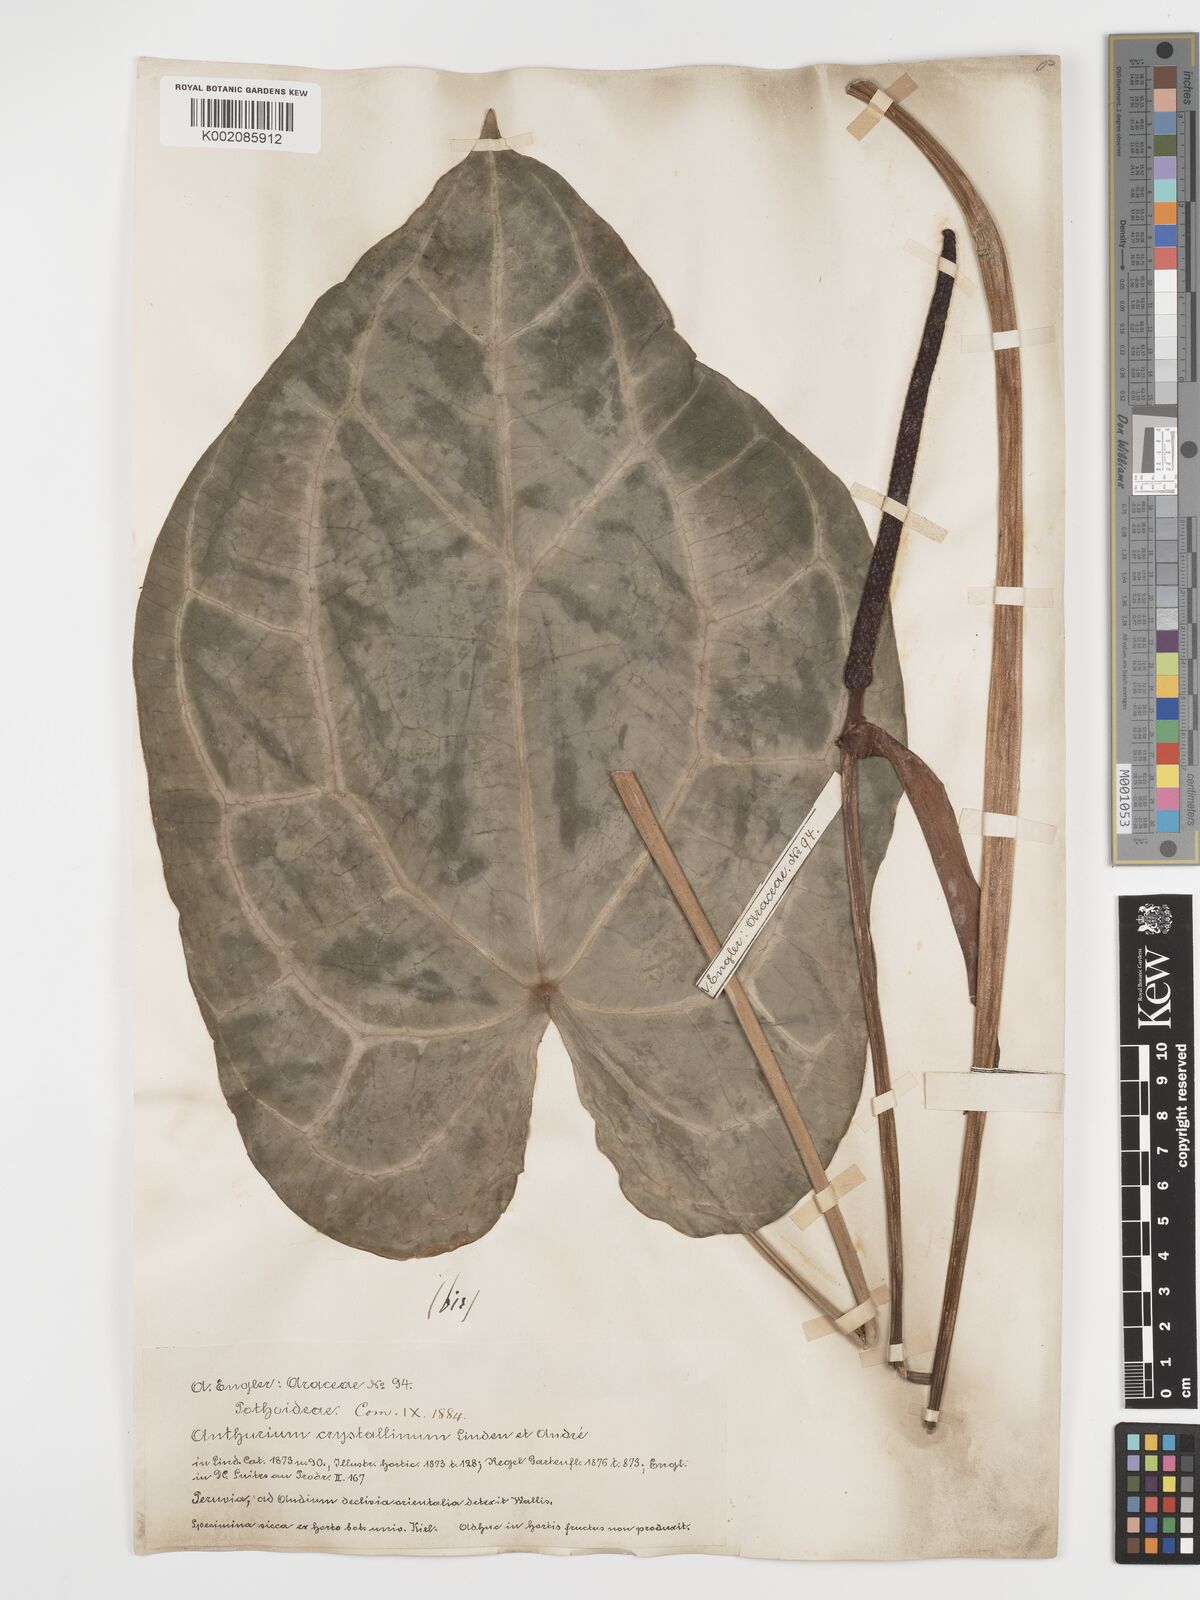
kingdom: Plantae
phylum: Tracheophyta
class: Liliopsida
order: Alismatales
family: Araceae
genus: Anthurium
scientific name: Anthurium crystallinum
